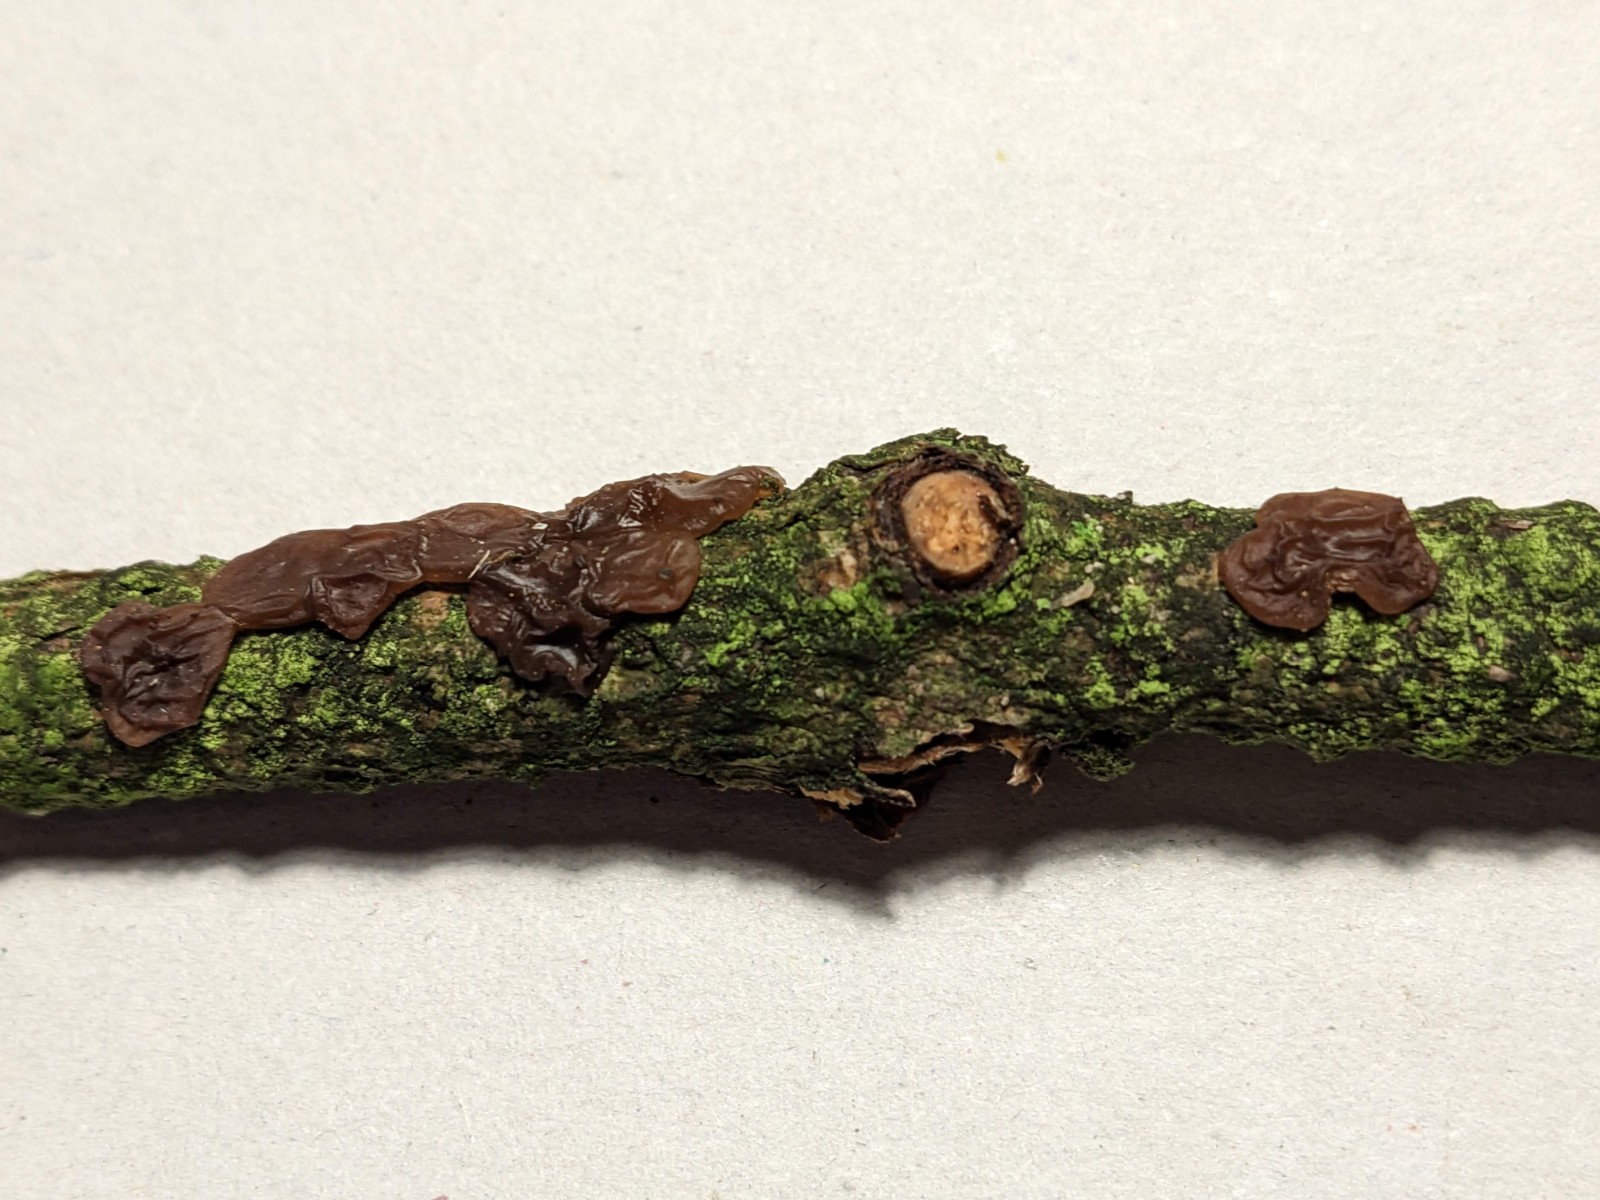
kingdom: Fungi
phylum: Basidiomycota
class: Agaricomycetes
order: Auriculariales
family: Auriculariaceae
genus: Exidia
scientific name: Exidia saccharina
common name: kandis-bævretop
